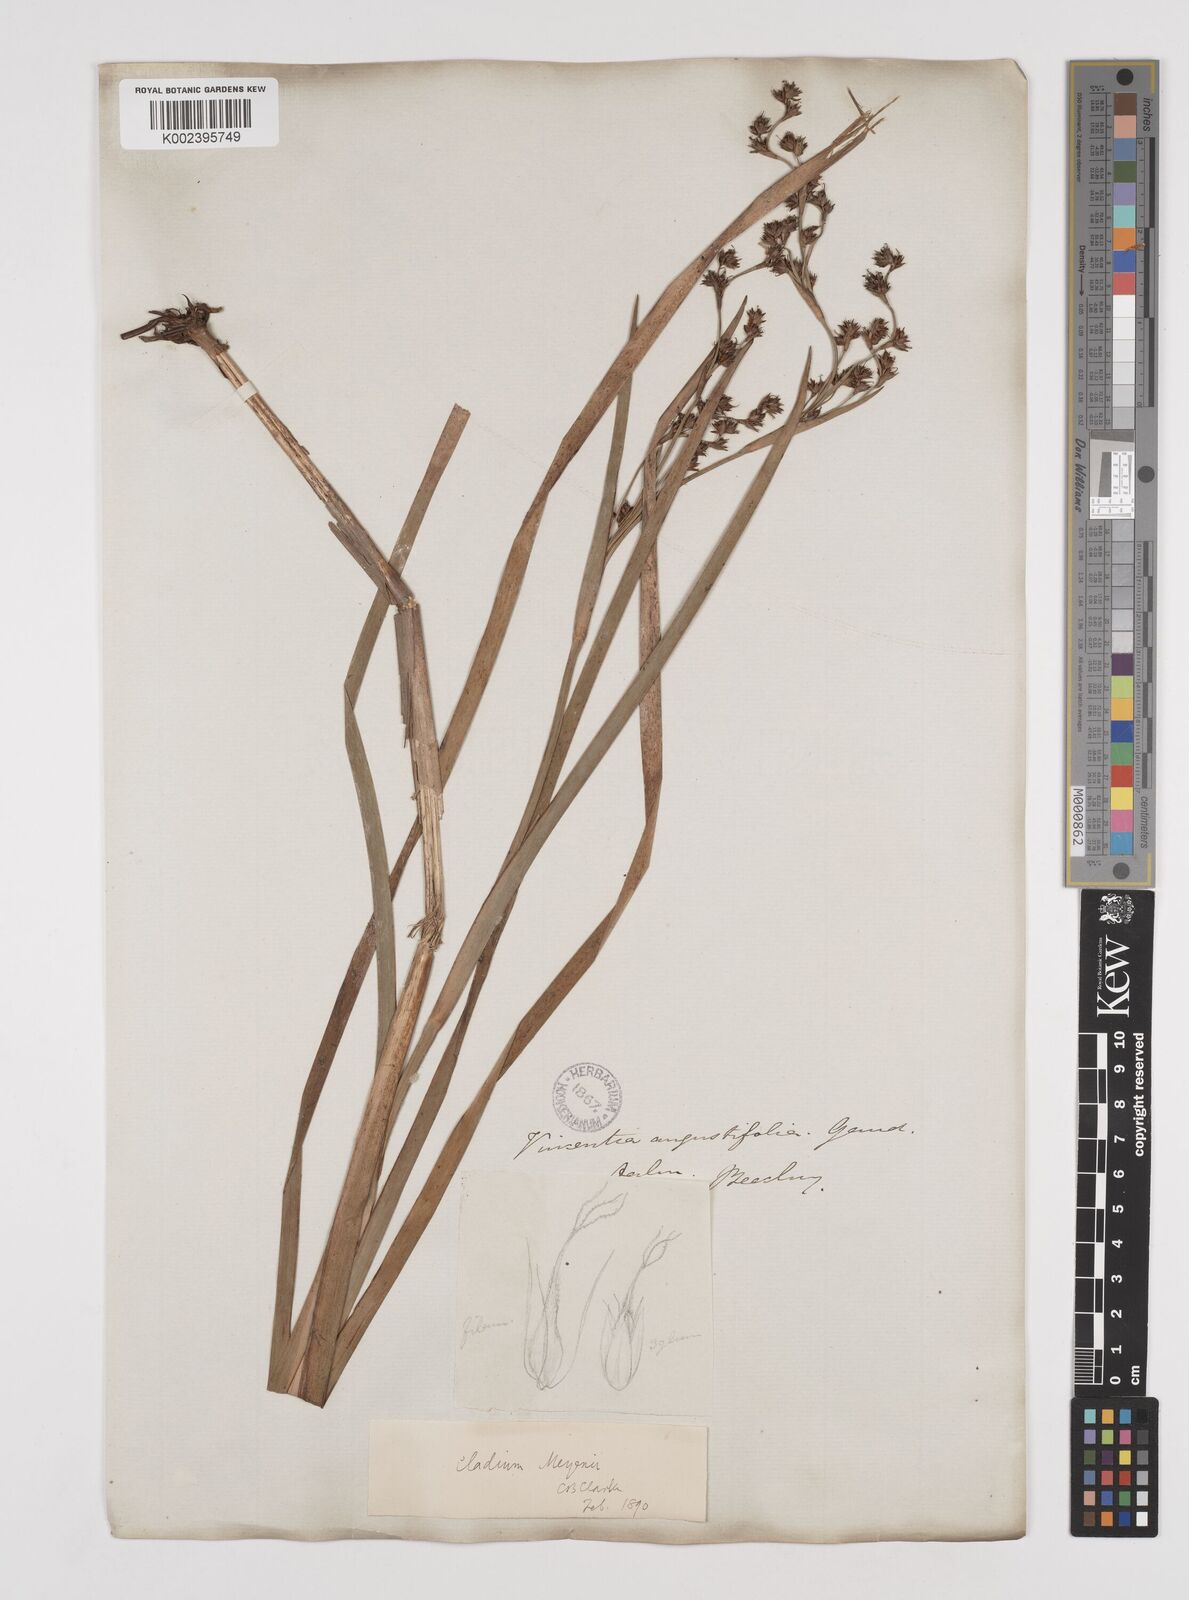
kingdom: Plantae
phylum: Tracheophyta
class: Liliopsida
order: Poales
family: Cyperaceae
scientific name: Cyperaceae
